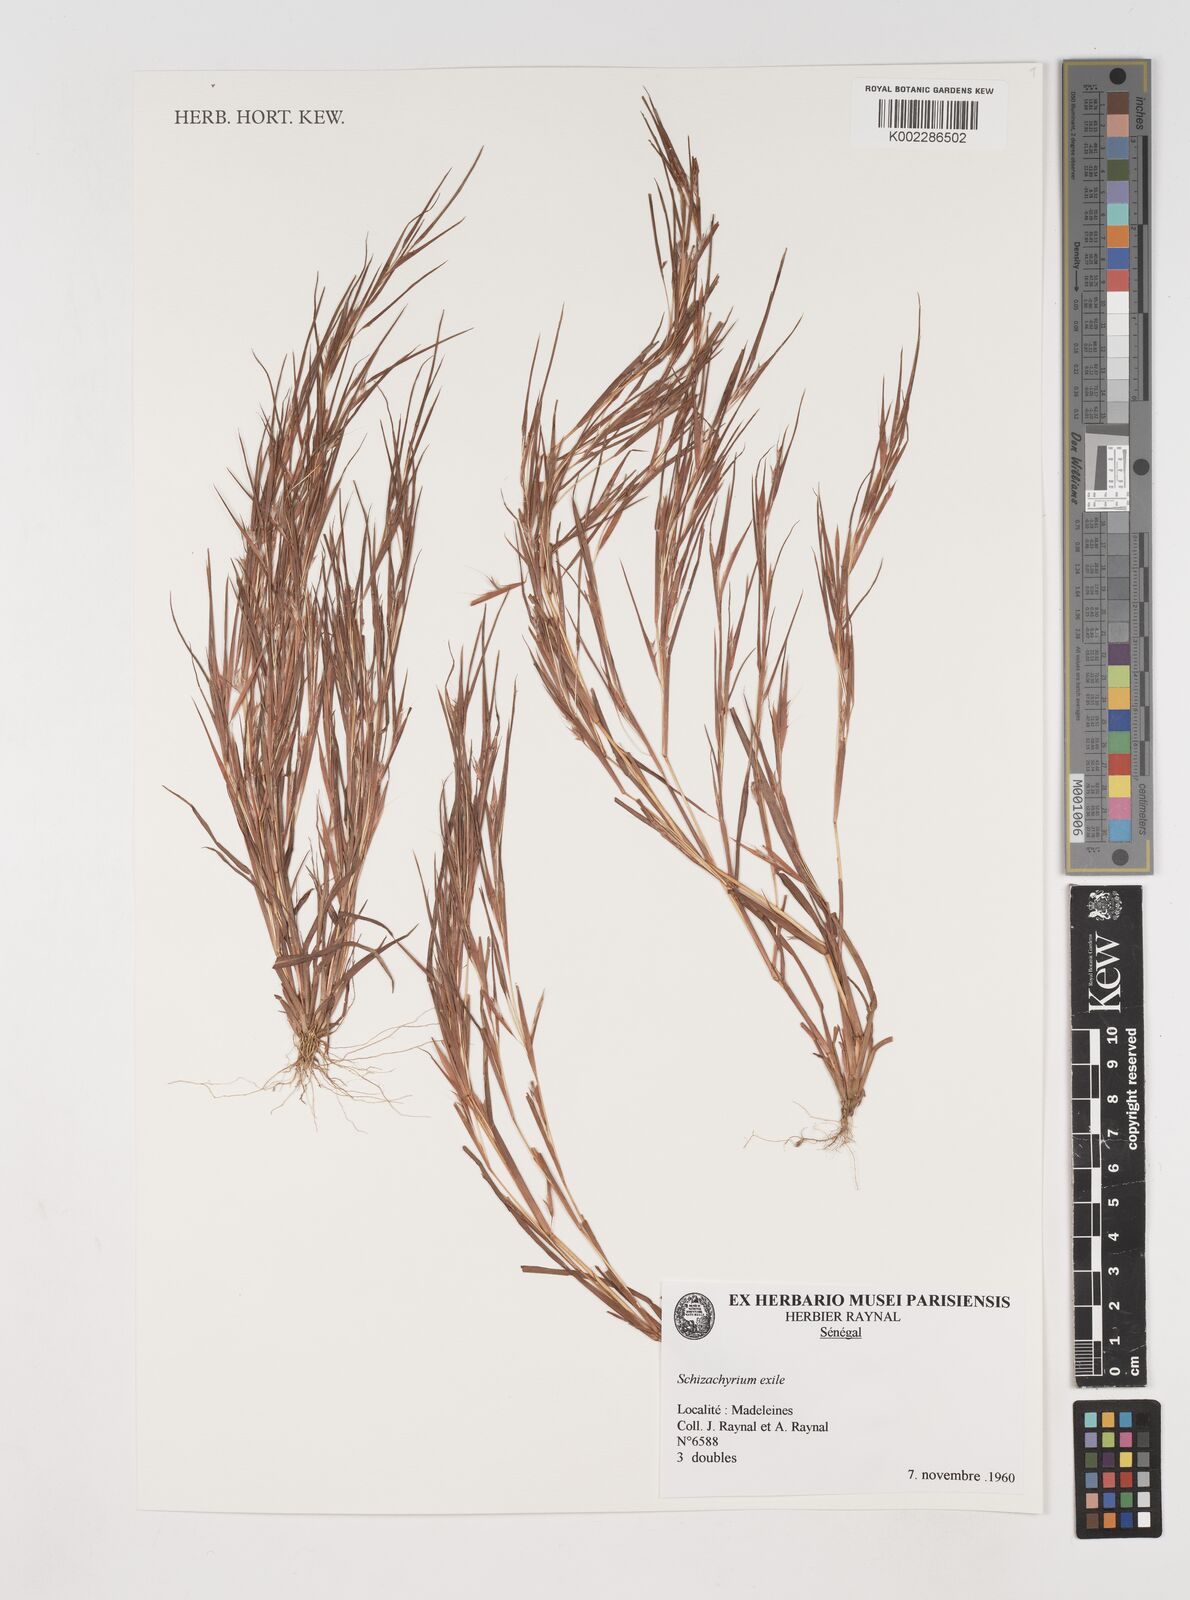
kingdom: Plantae
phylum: Tracheophyta
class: Liliopsida
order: Poales
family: Poaceae
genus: Schizachyrium
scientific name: Schizachyrium exile
